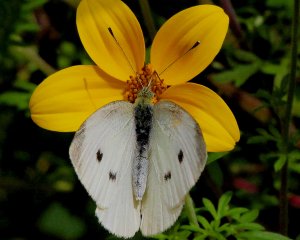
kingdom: Animalia
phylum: Arthropoda
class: Insecta
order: Lepidoptera
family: Pieridae
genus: Pieris
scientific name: Pieris rapae
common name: Cabbage White
